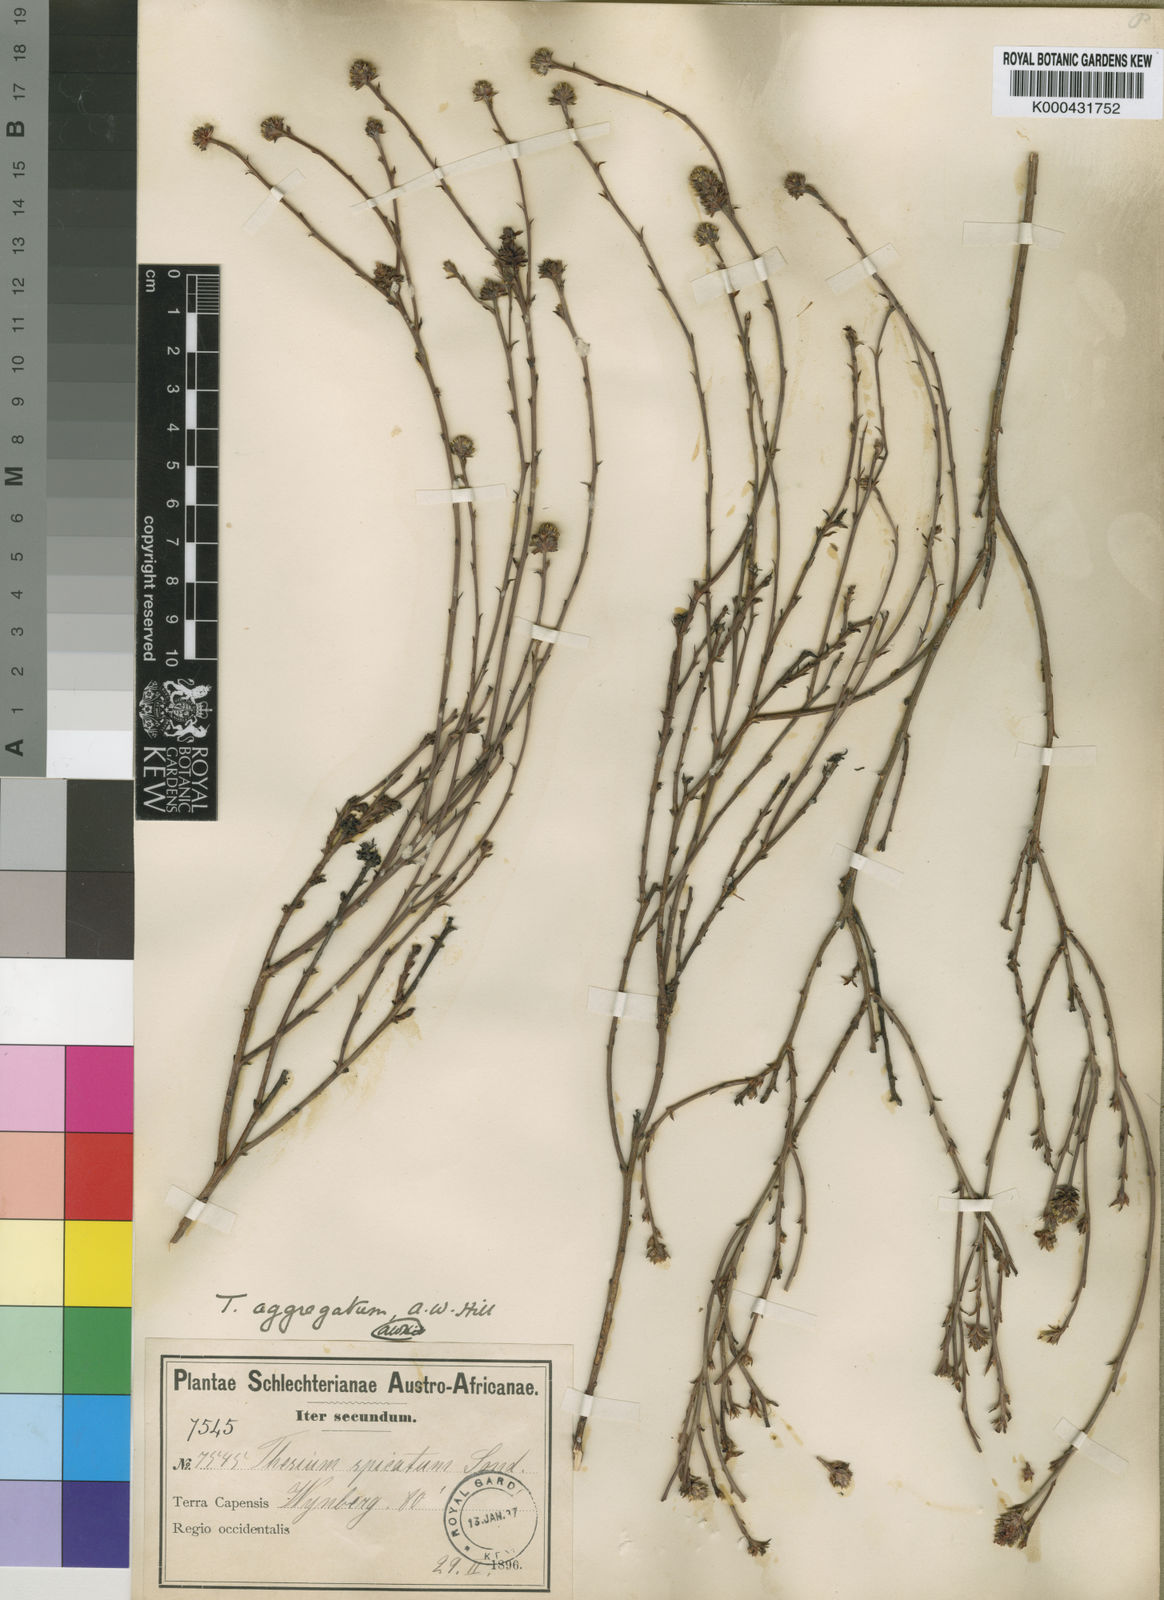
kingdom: Plantae
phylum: Tracheophyta
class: Magnoliopsida
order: Santalales
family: Thesiaceae
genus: Thesium
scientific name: Thesium aggregatum
